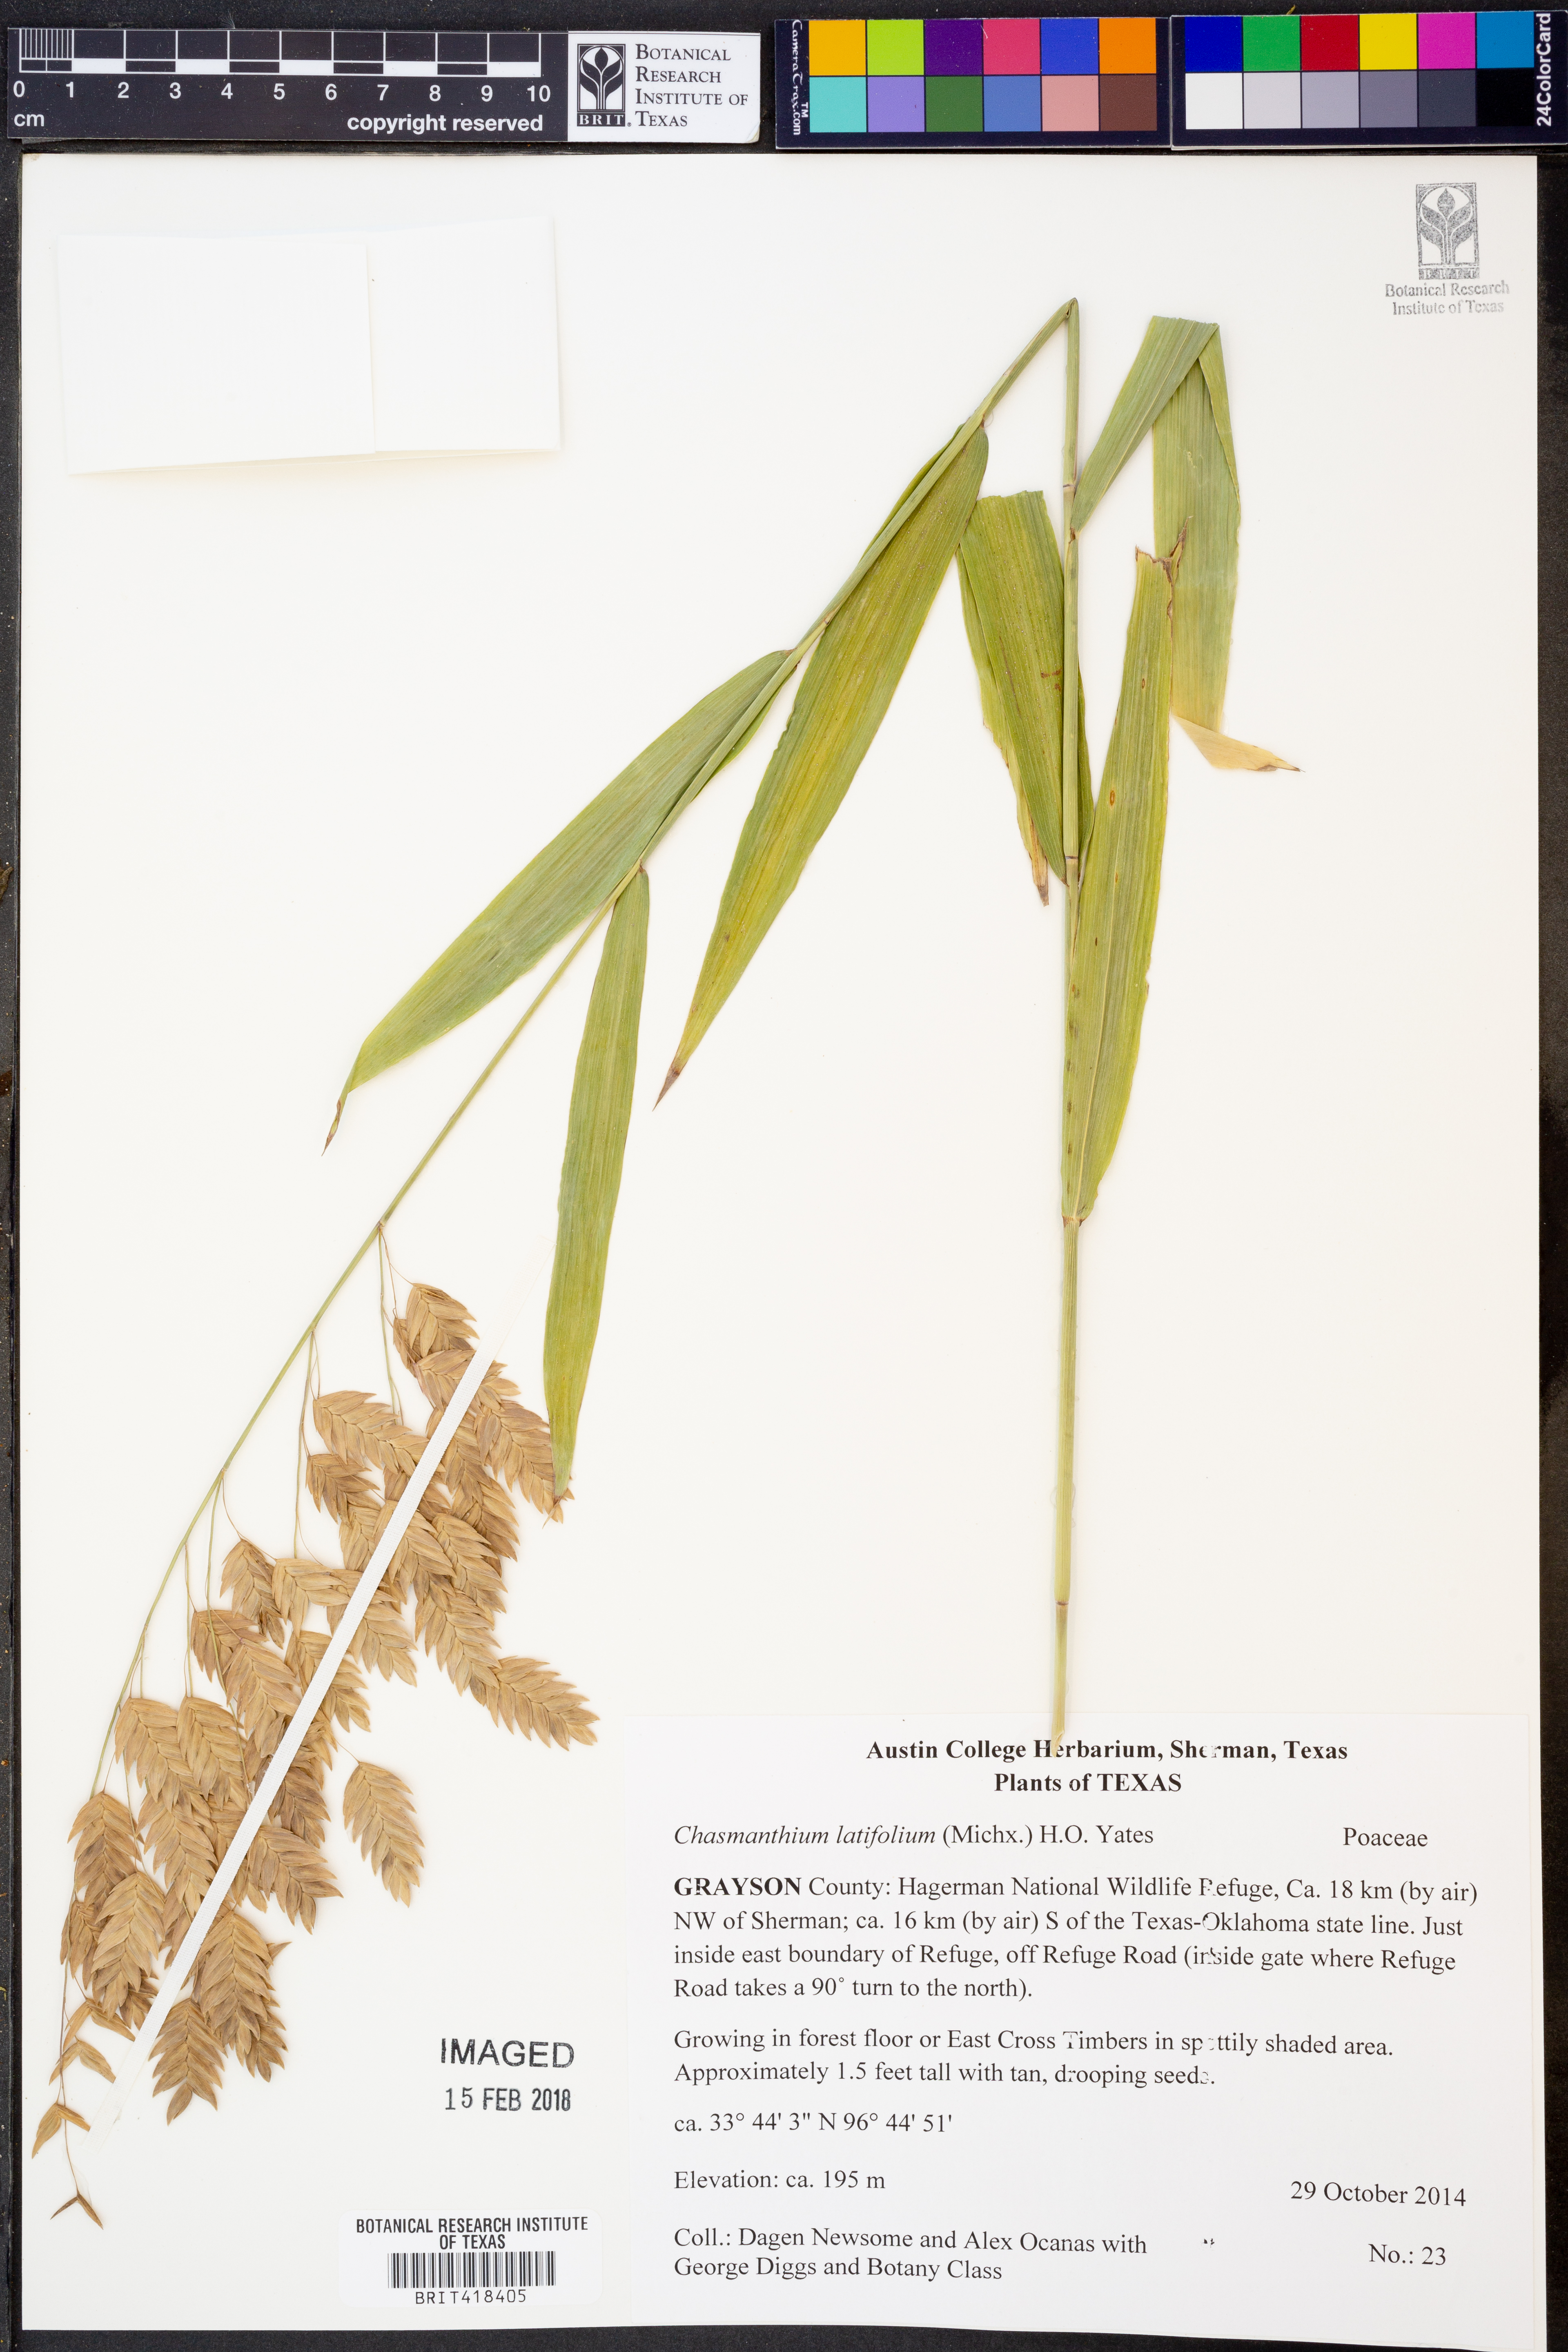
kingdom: Plantae
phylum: Tracheophyta
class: Liliopsida
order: Poales
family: Poaceae
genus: Chasmanthium
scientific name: Chasmanthium latifolium
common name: Broad-leaved chasmanthium
